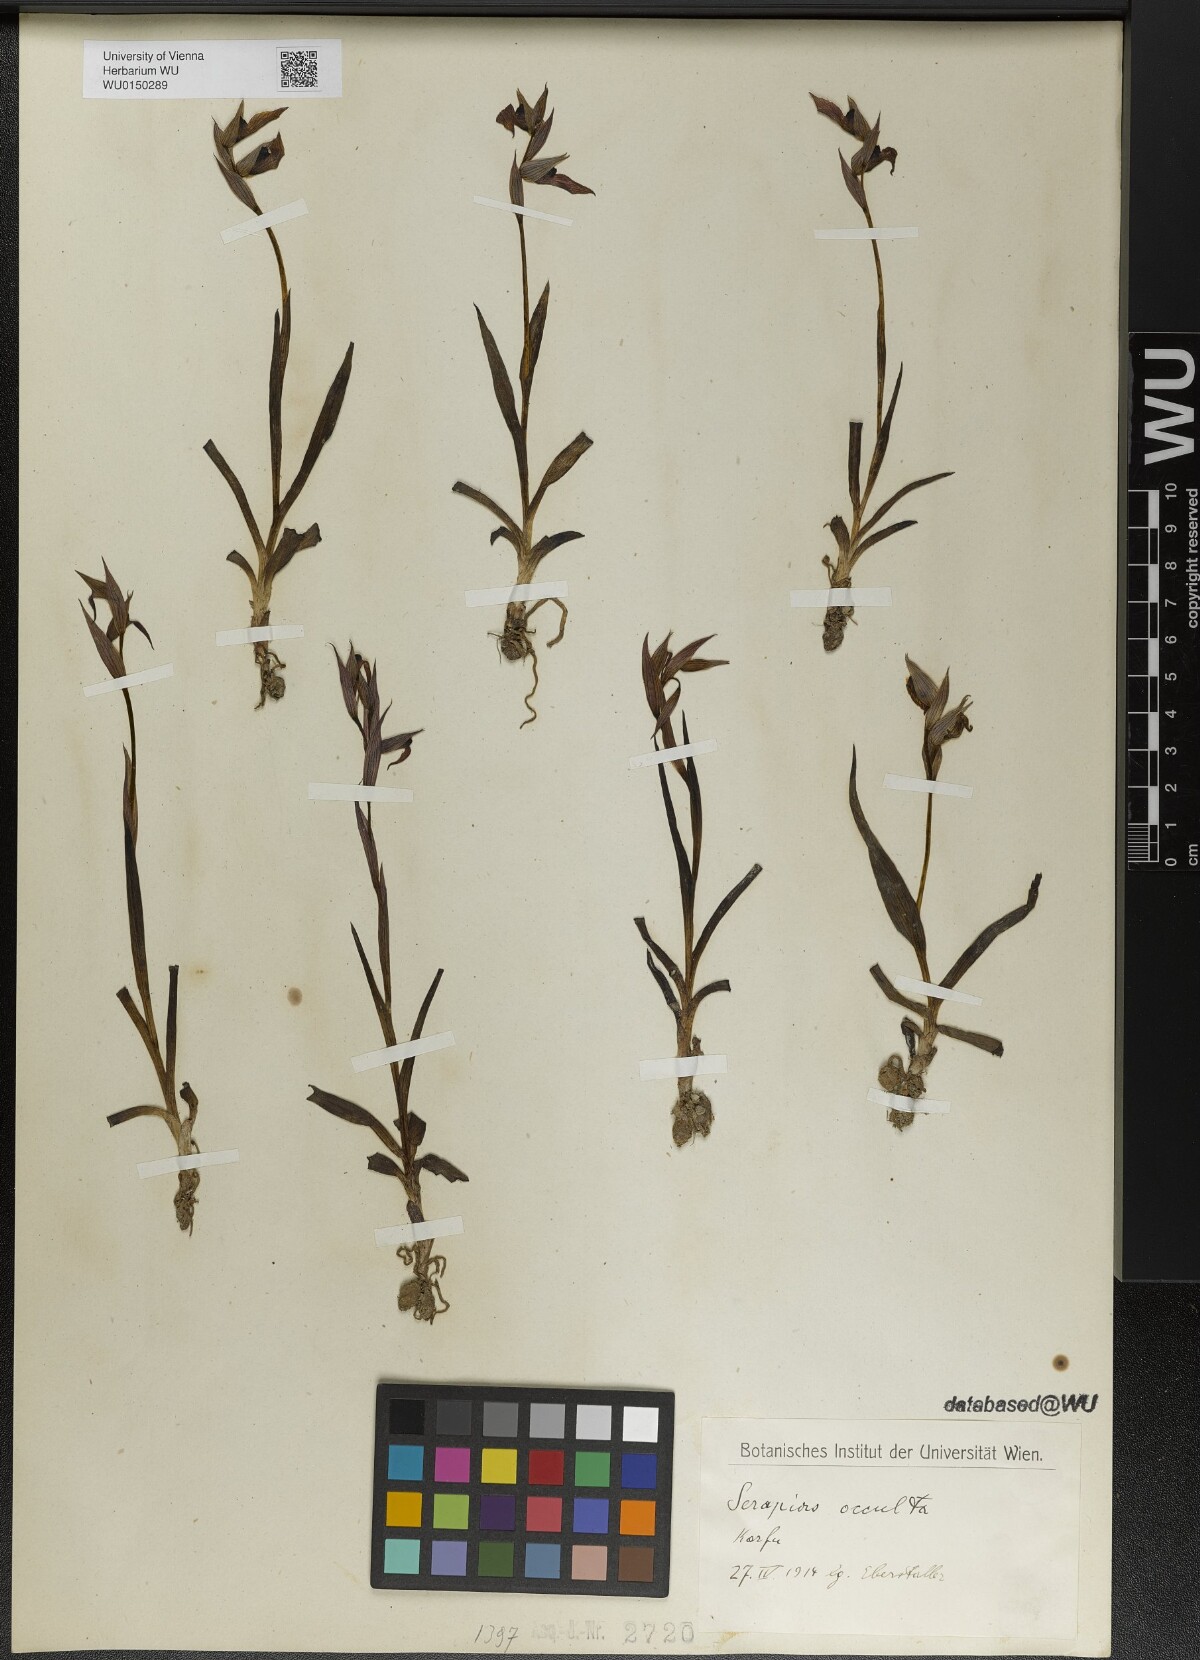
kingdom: Plantae
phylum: Tracheophyta
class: Liliopsida
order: Asparagales
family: Orchidaceae
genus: Serapias
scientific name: Serapias parviflora
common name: Small-flowered tongue-orchid
